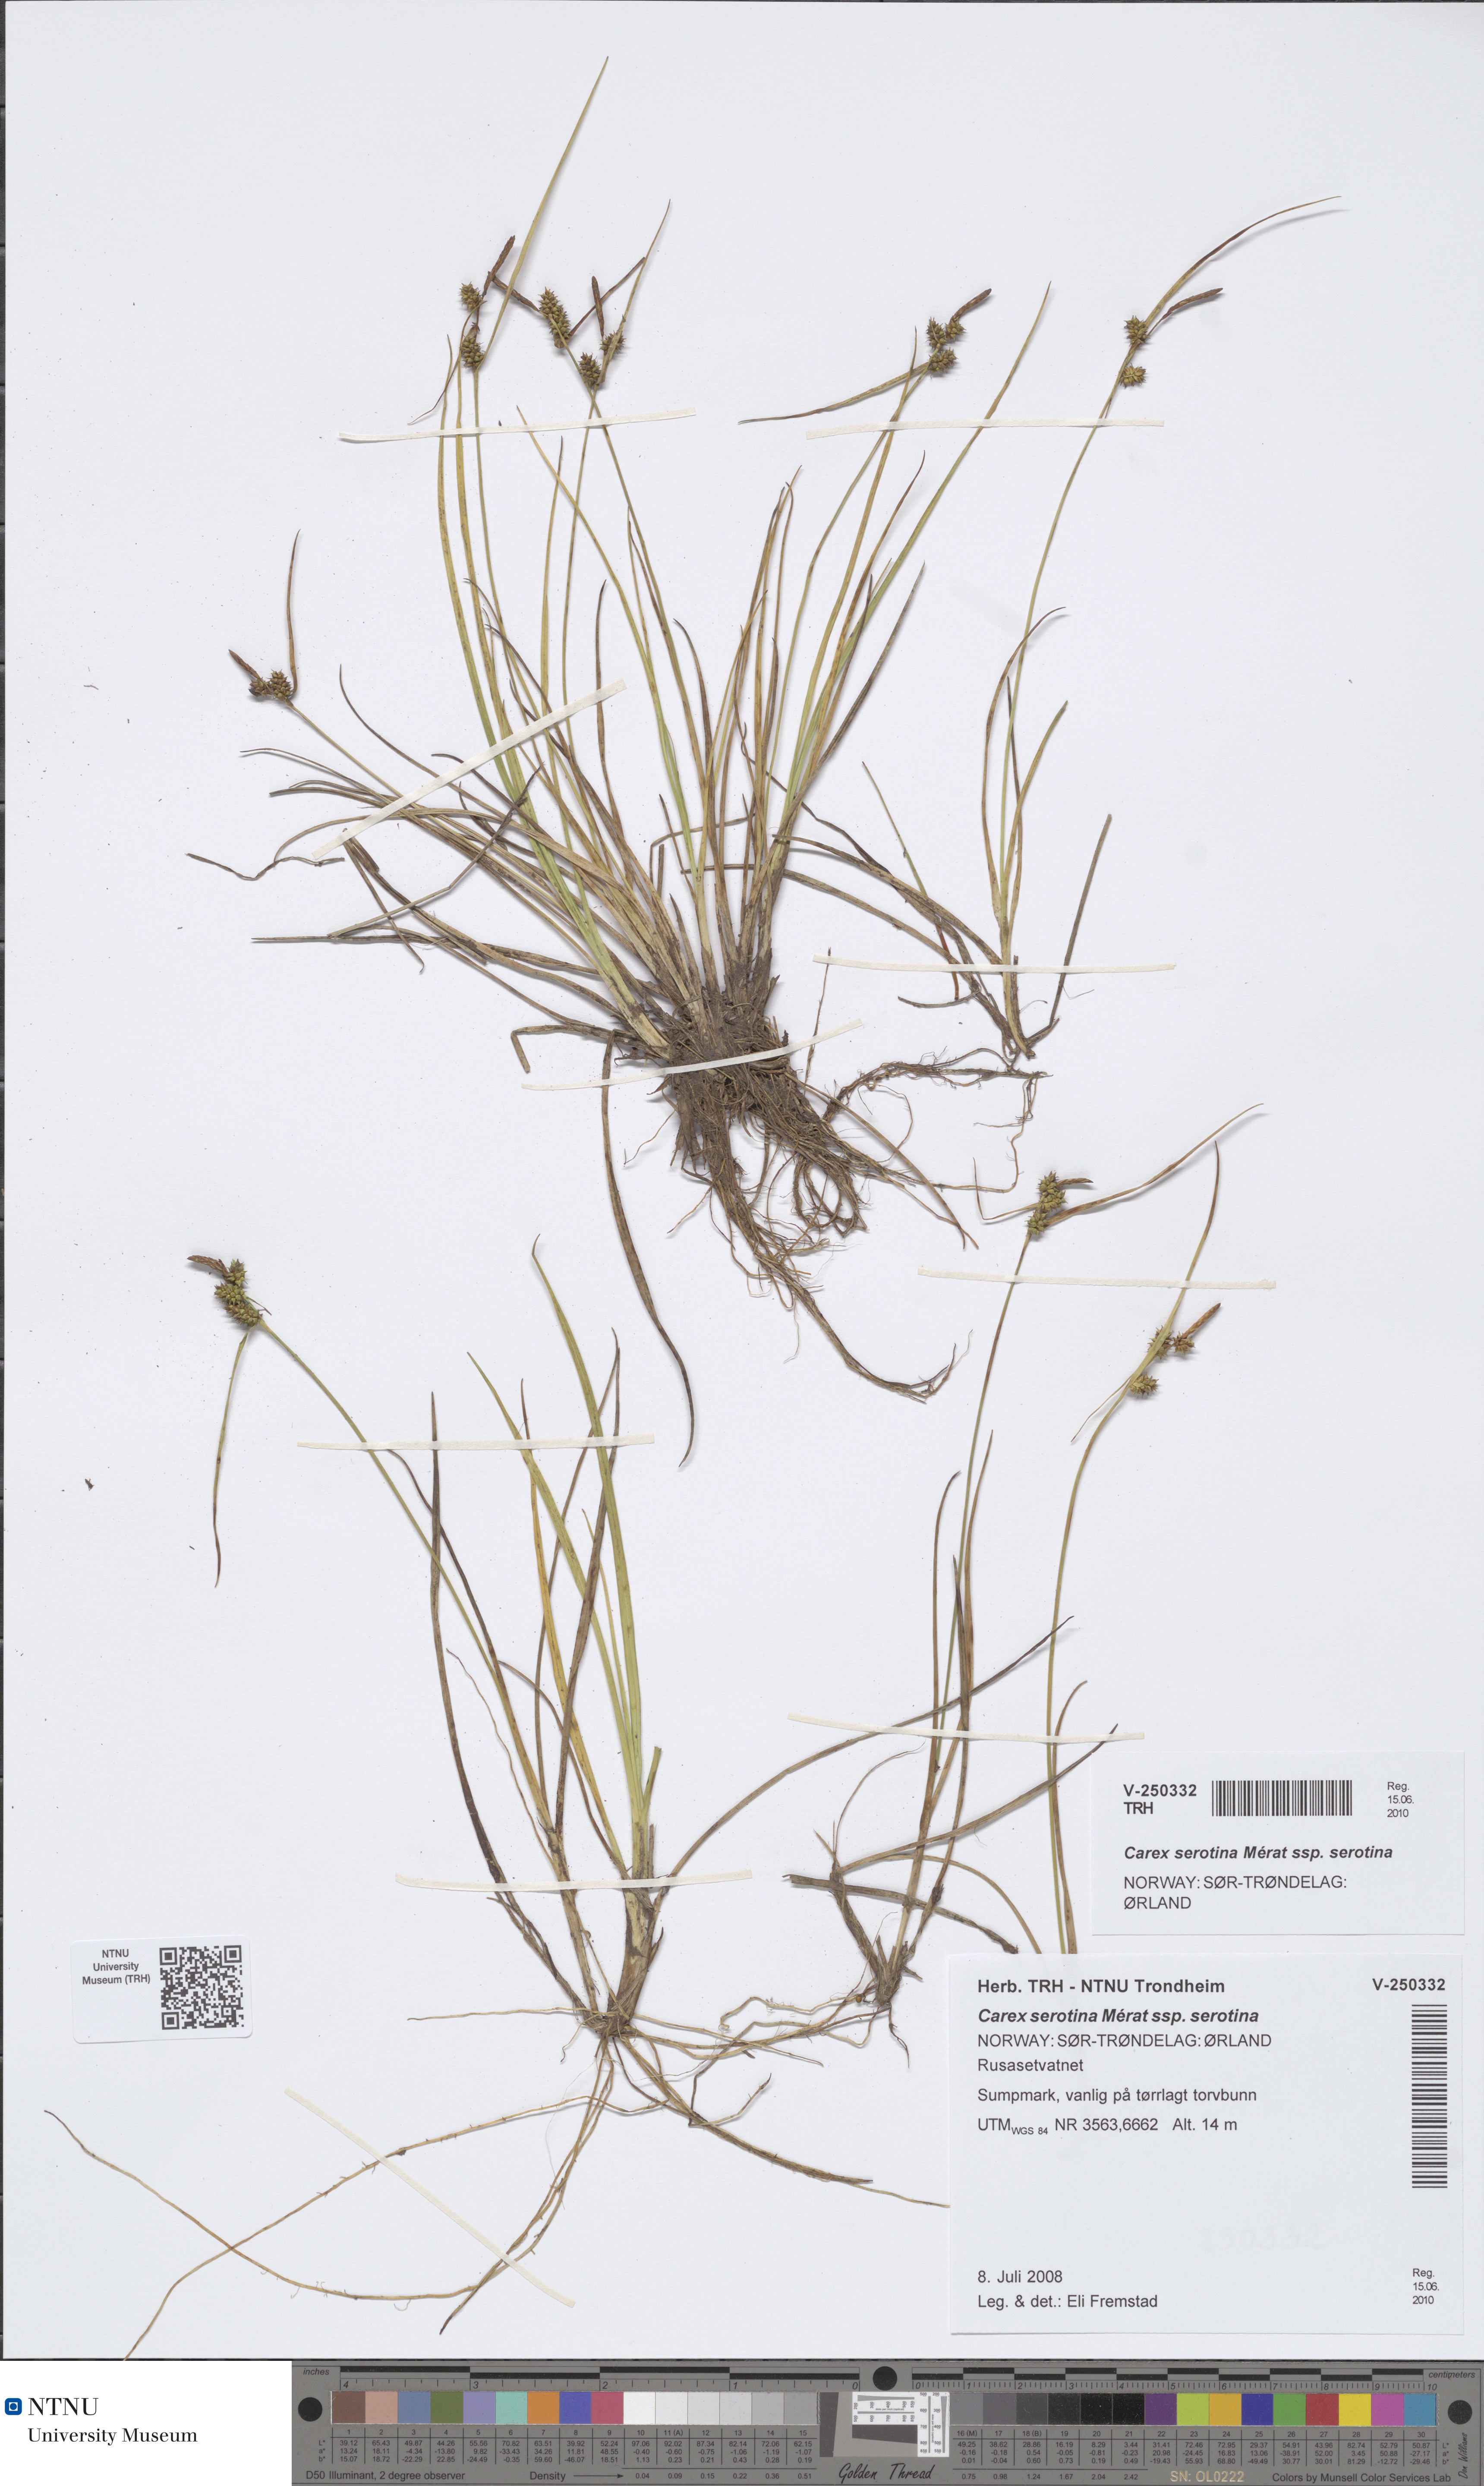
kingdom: Plantae
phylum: Tracheophyta
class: Liliopsida
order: Poales
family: Cyperaceae
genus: Carex
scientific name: Carex oederi
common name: Common & small-fruited yellow-sedge
